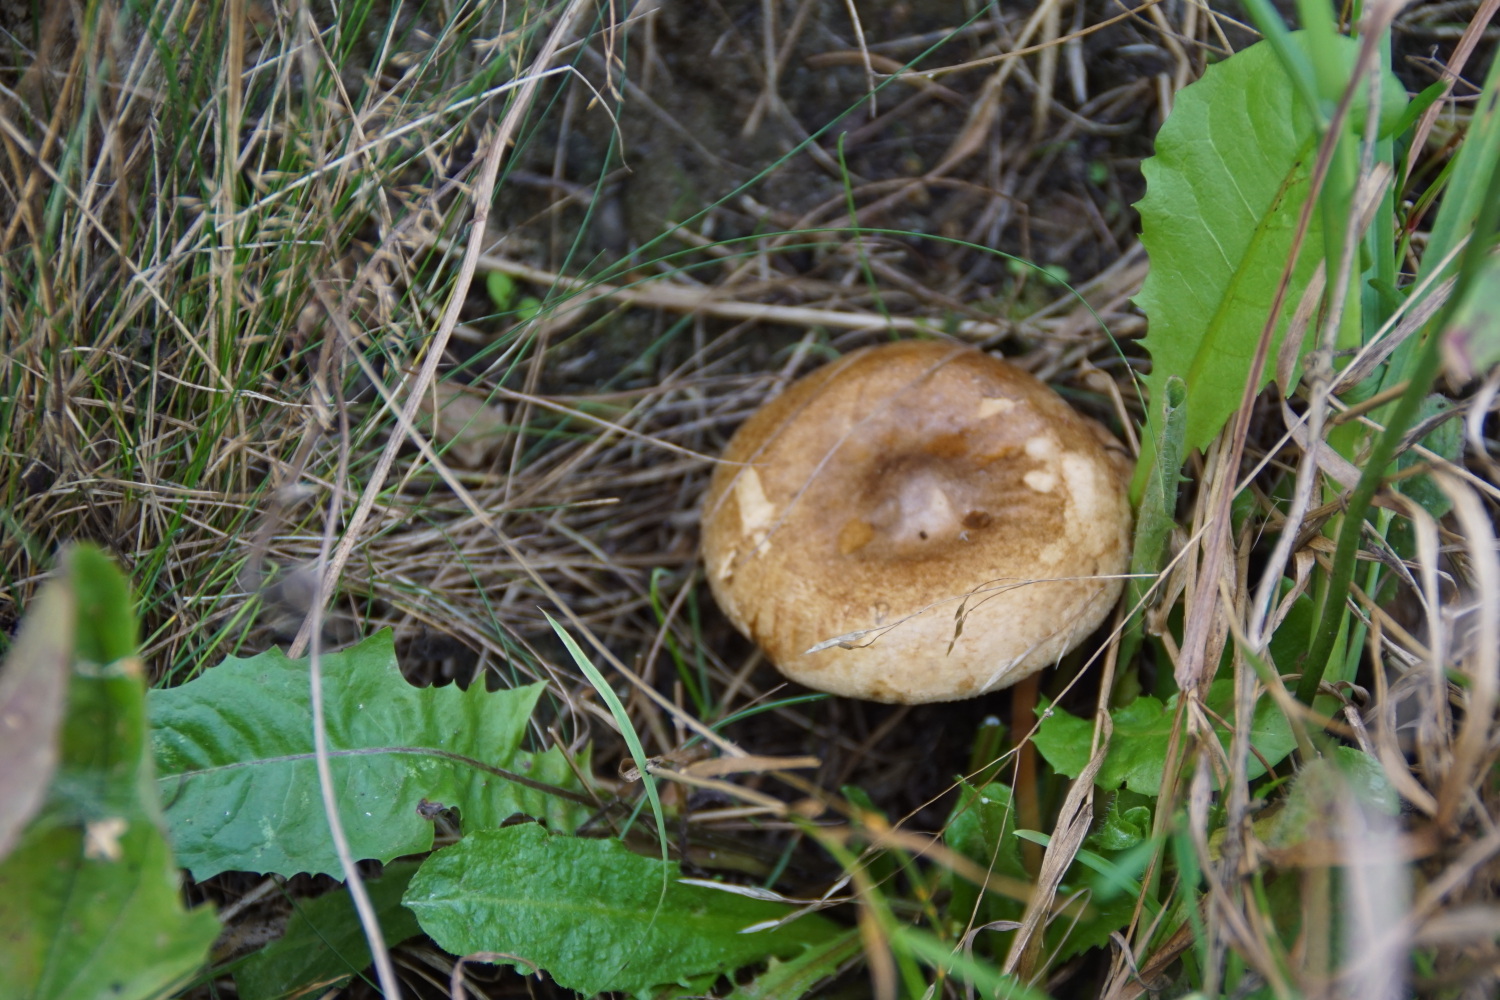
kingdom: Fungi
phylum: Basidiomycota
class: Agaricomycetes
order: Boletales
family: Paxillaceae
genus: Paxillus
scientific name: Paxillus involutus
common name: almindelig netbladhat
